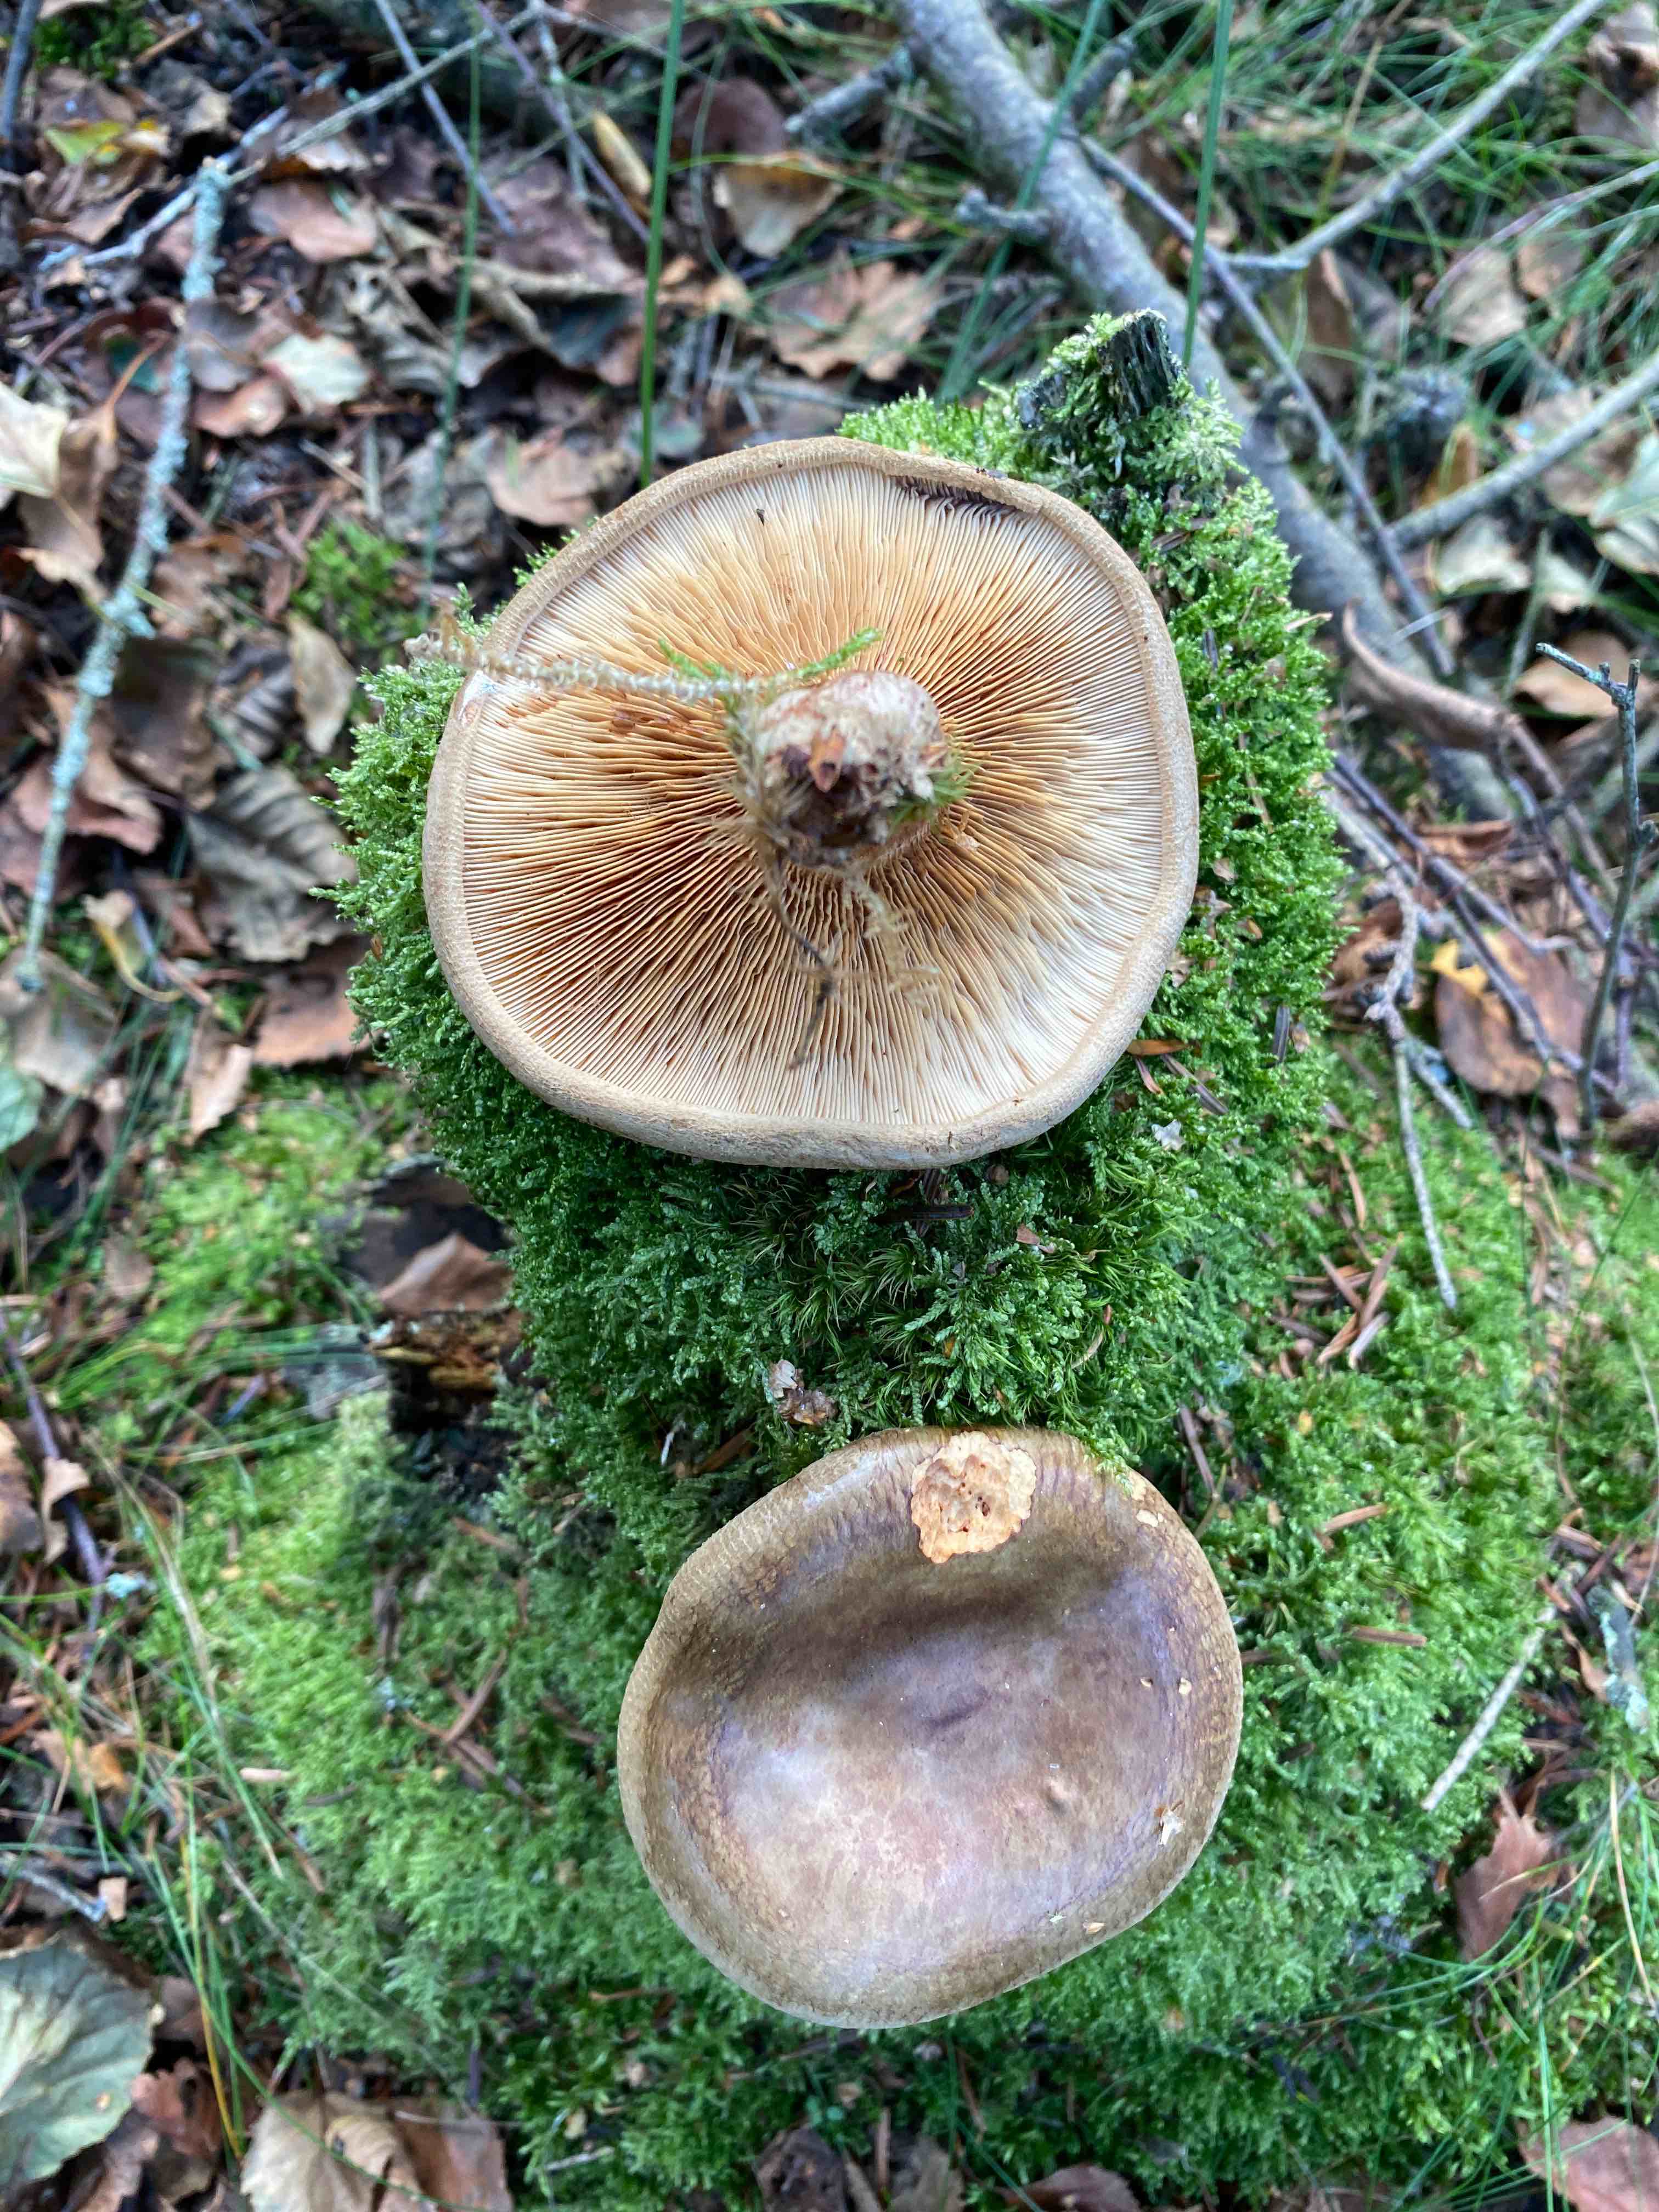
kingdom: Fungi
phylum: Basidiomycota
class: Agaricomycetes
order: Boletales
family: Paxillaceae
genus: Paxillus
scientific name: Paxillus involutus
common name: almindelig netbladhat
